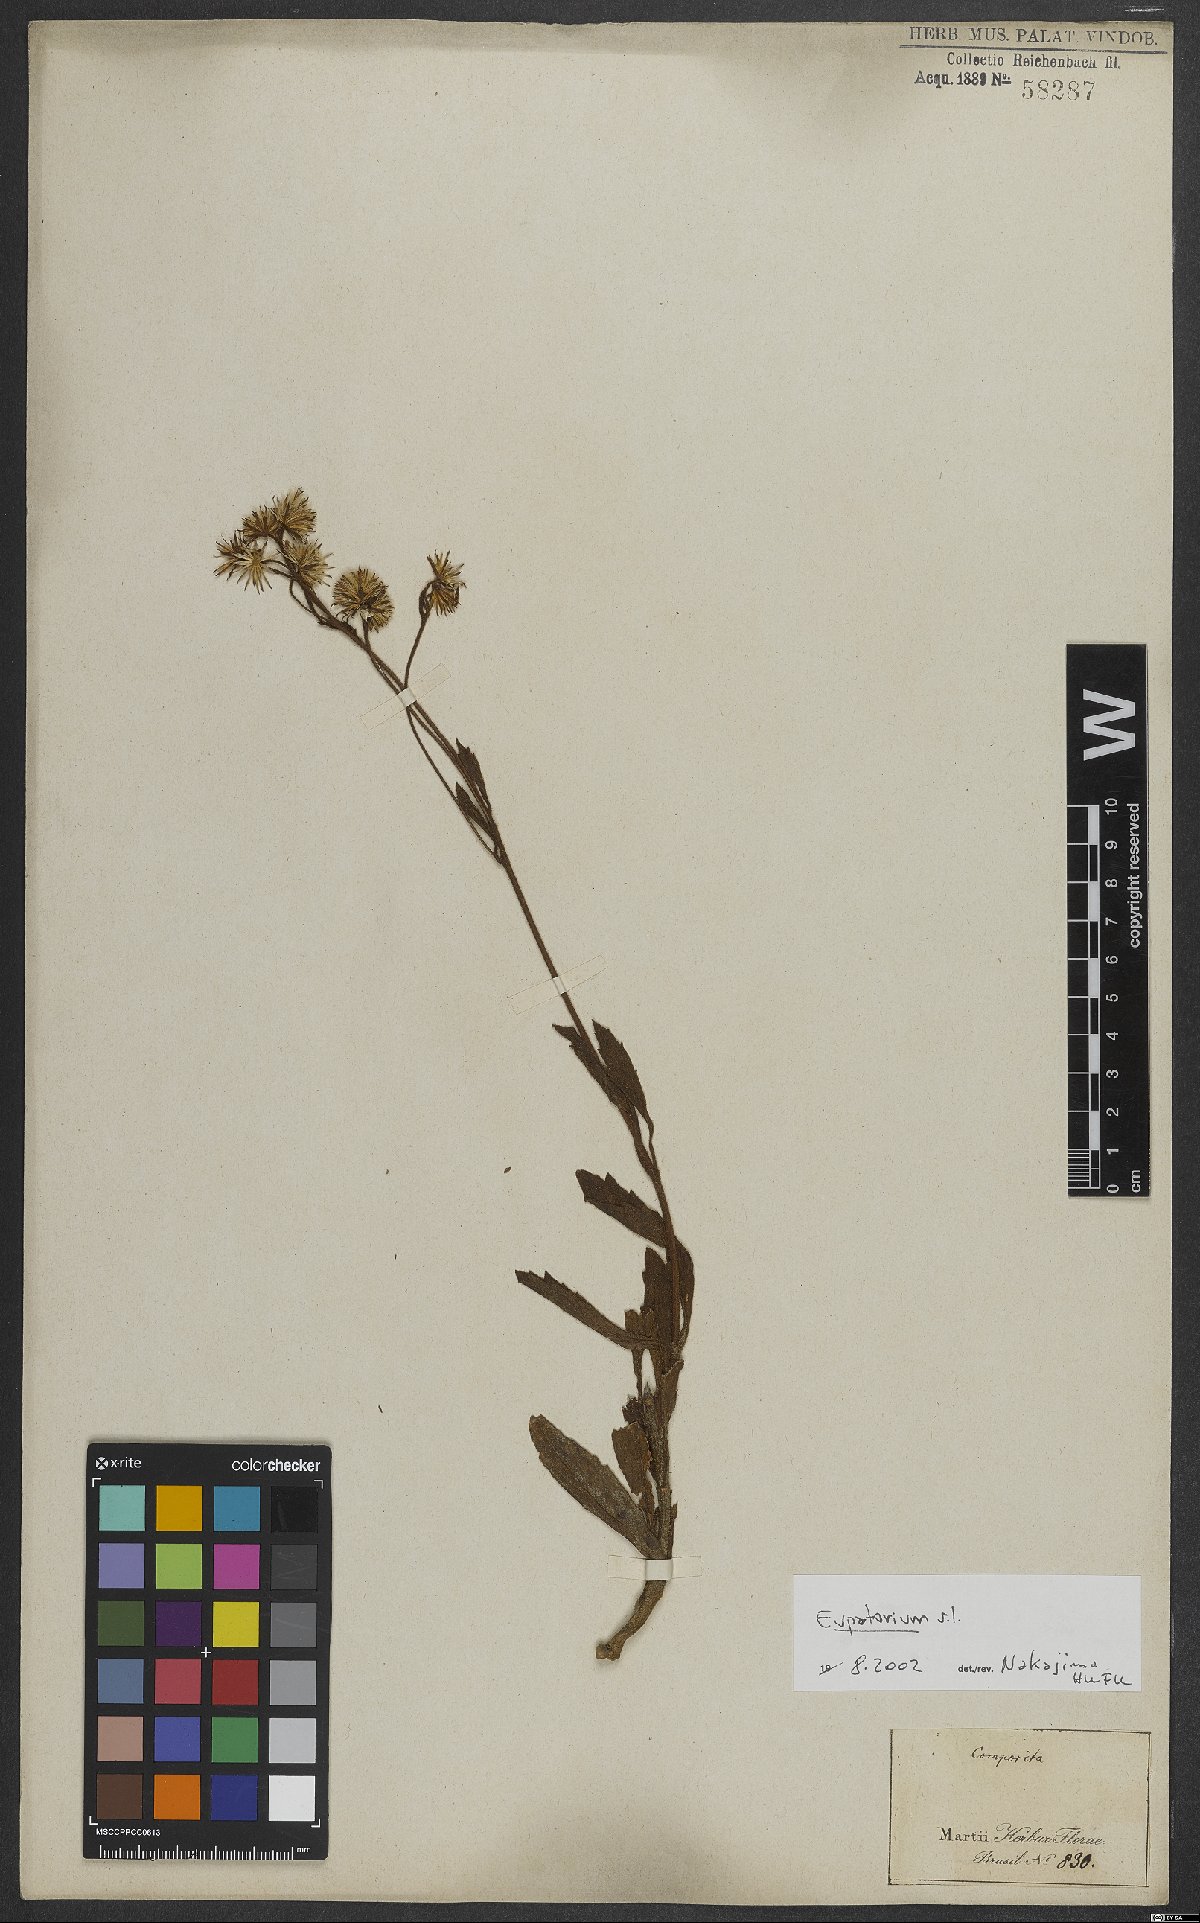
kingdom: Plantae
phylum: Tracheophyta
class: Magnoliopsida
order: Asterales
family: Asteraceae
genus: Eupatorium
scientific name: Eupatorium
